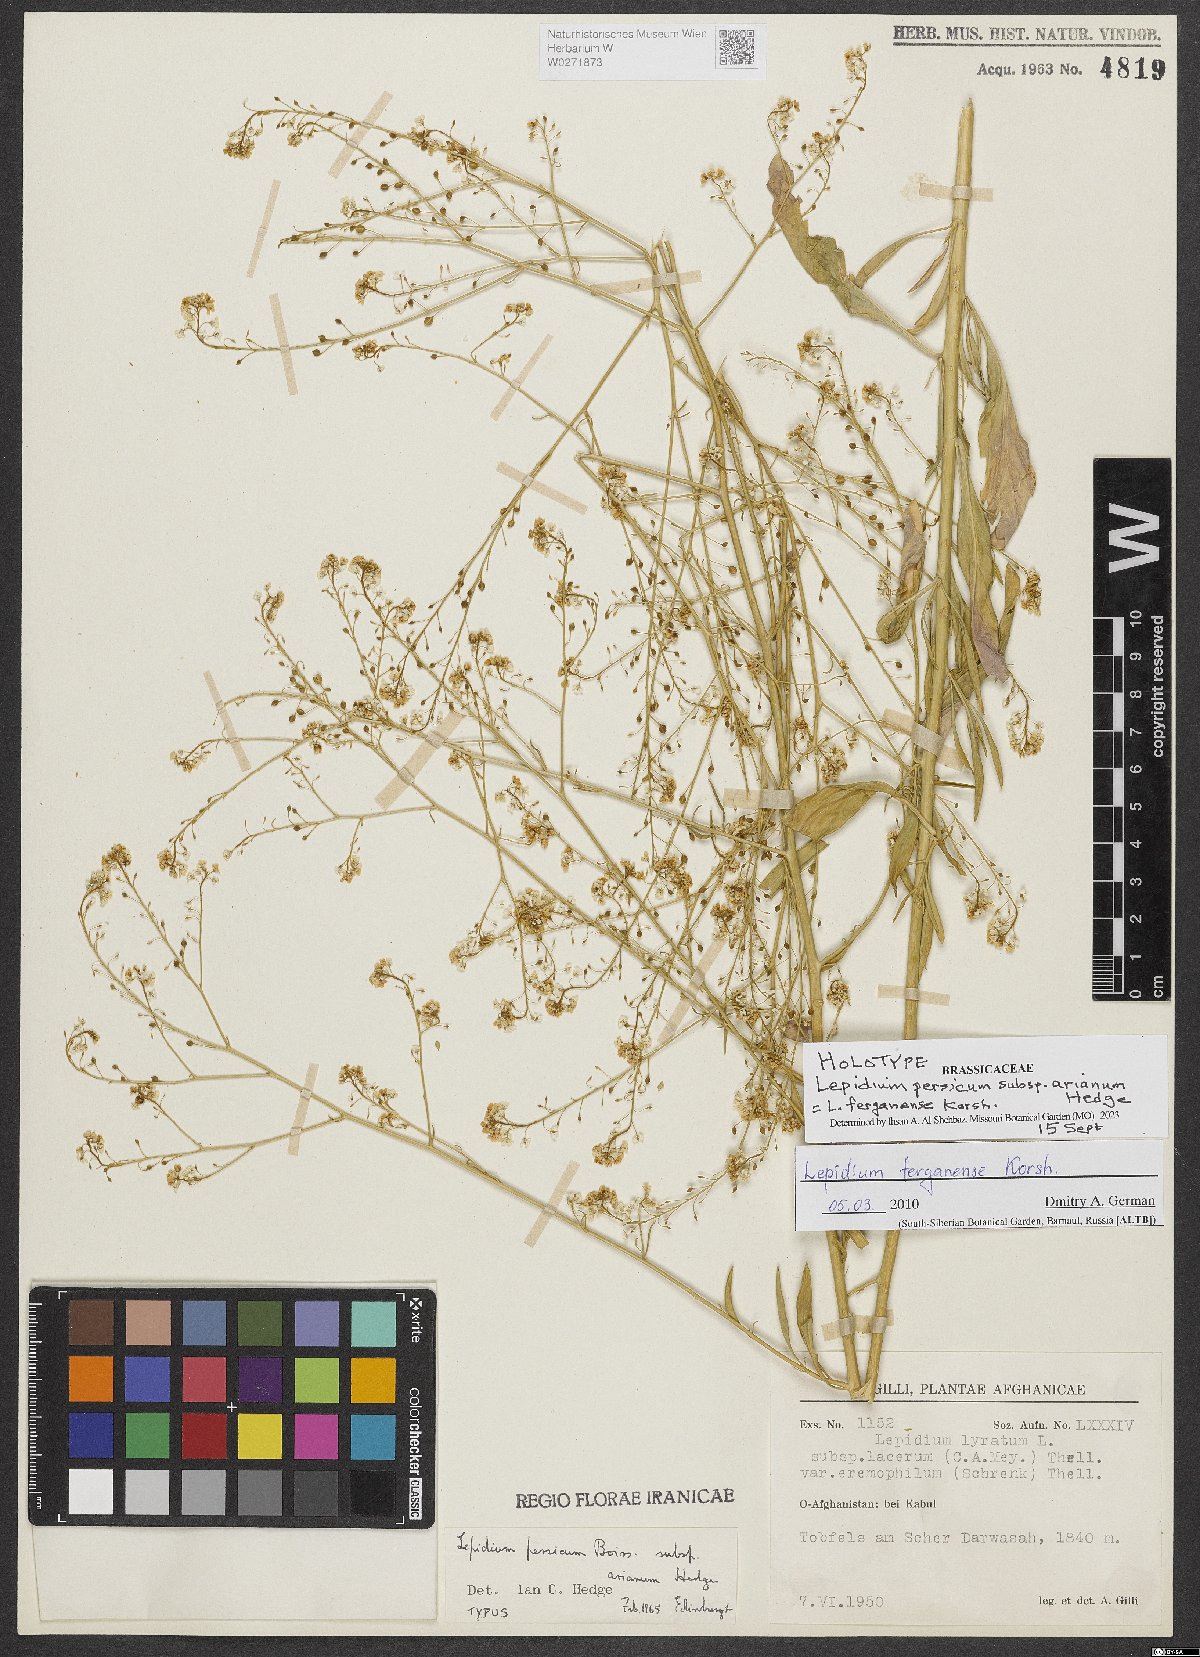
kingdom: Plantae
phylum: Tracheophyta
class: Magnoliopsida
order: Brassicales
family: Brassicaceae
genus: Lepidium
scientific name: Lepidium ferganense
